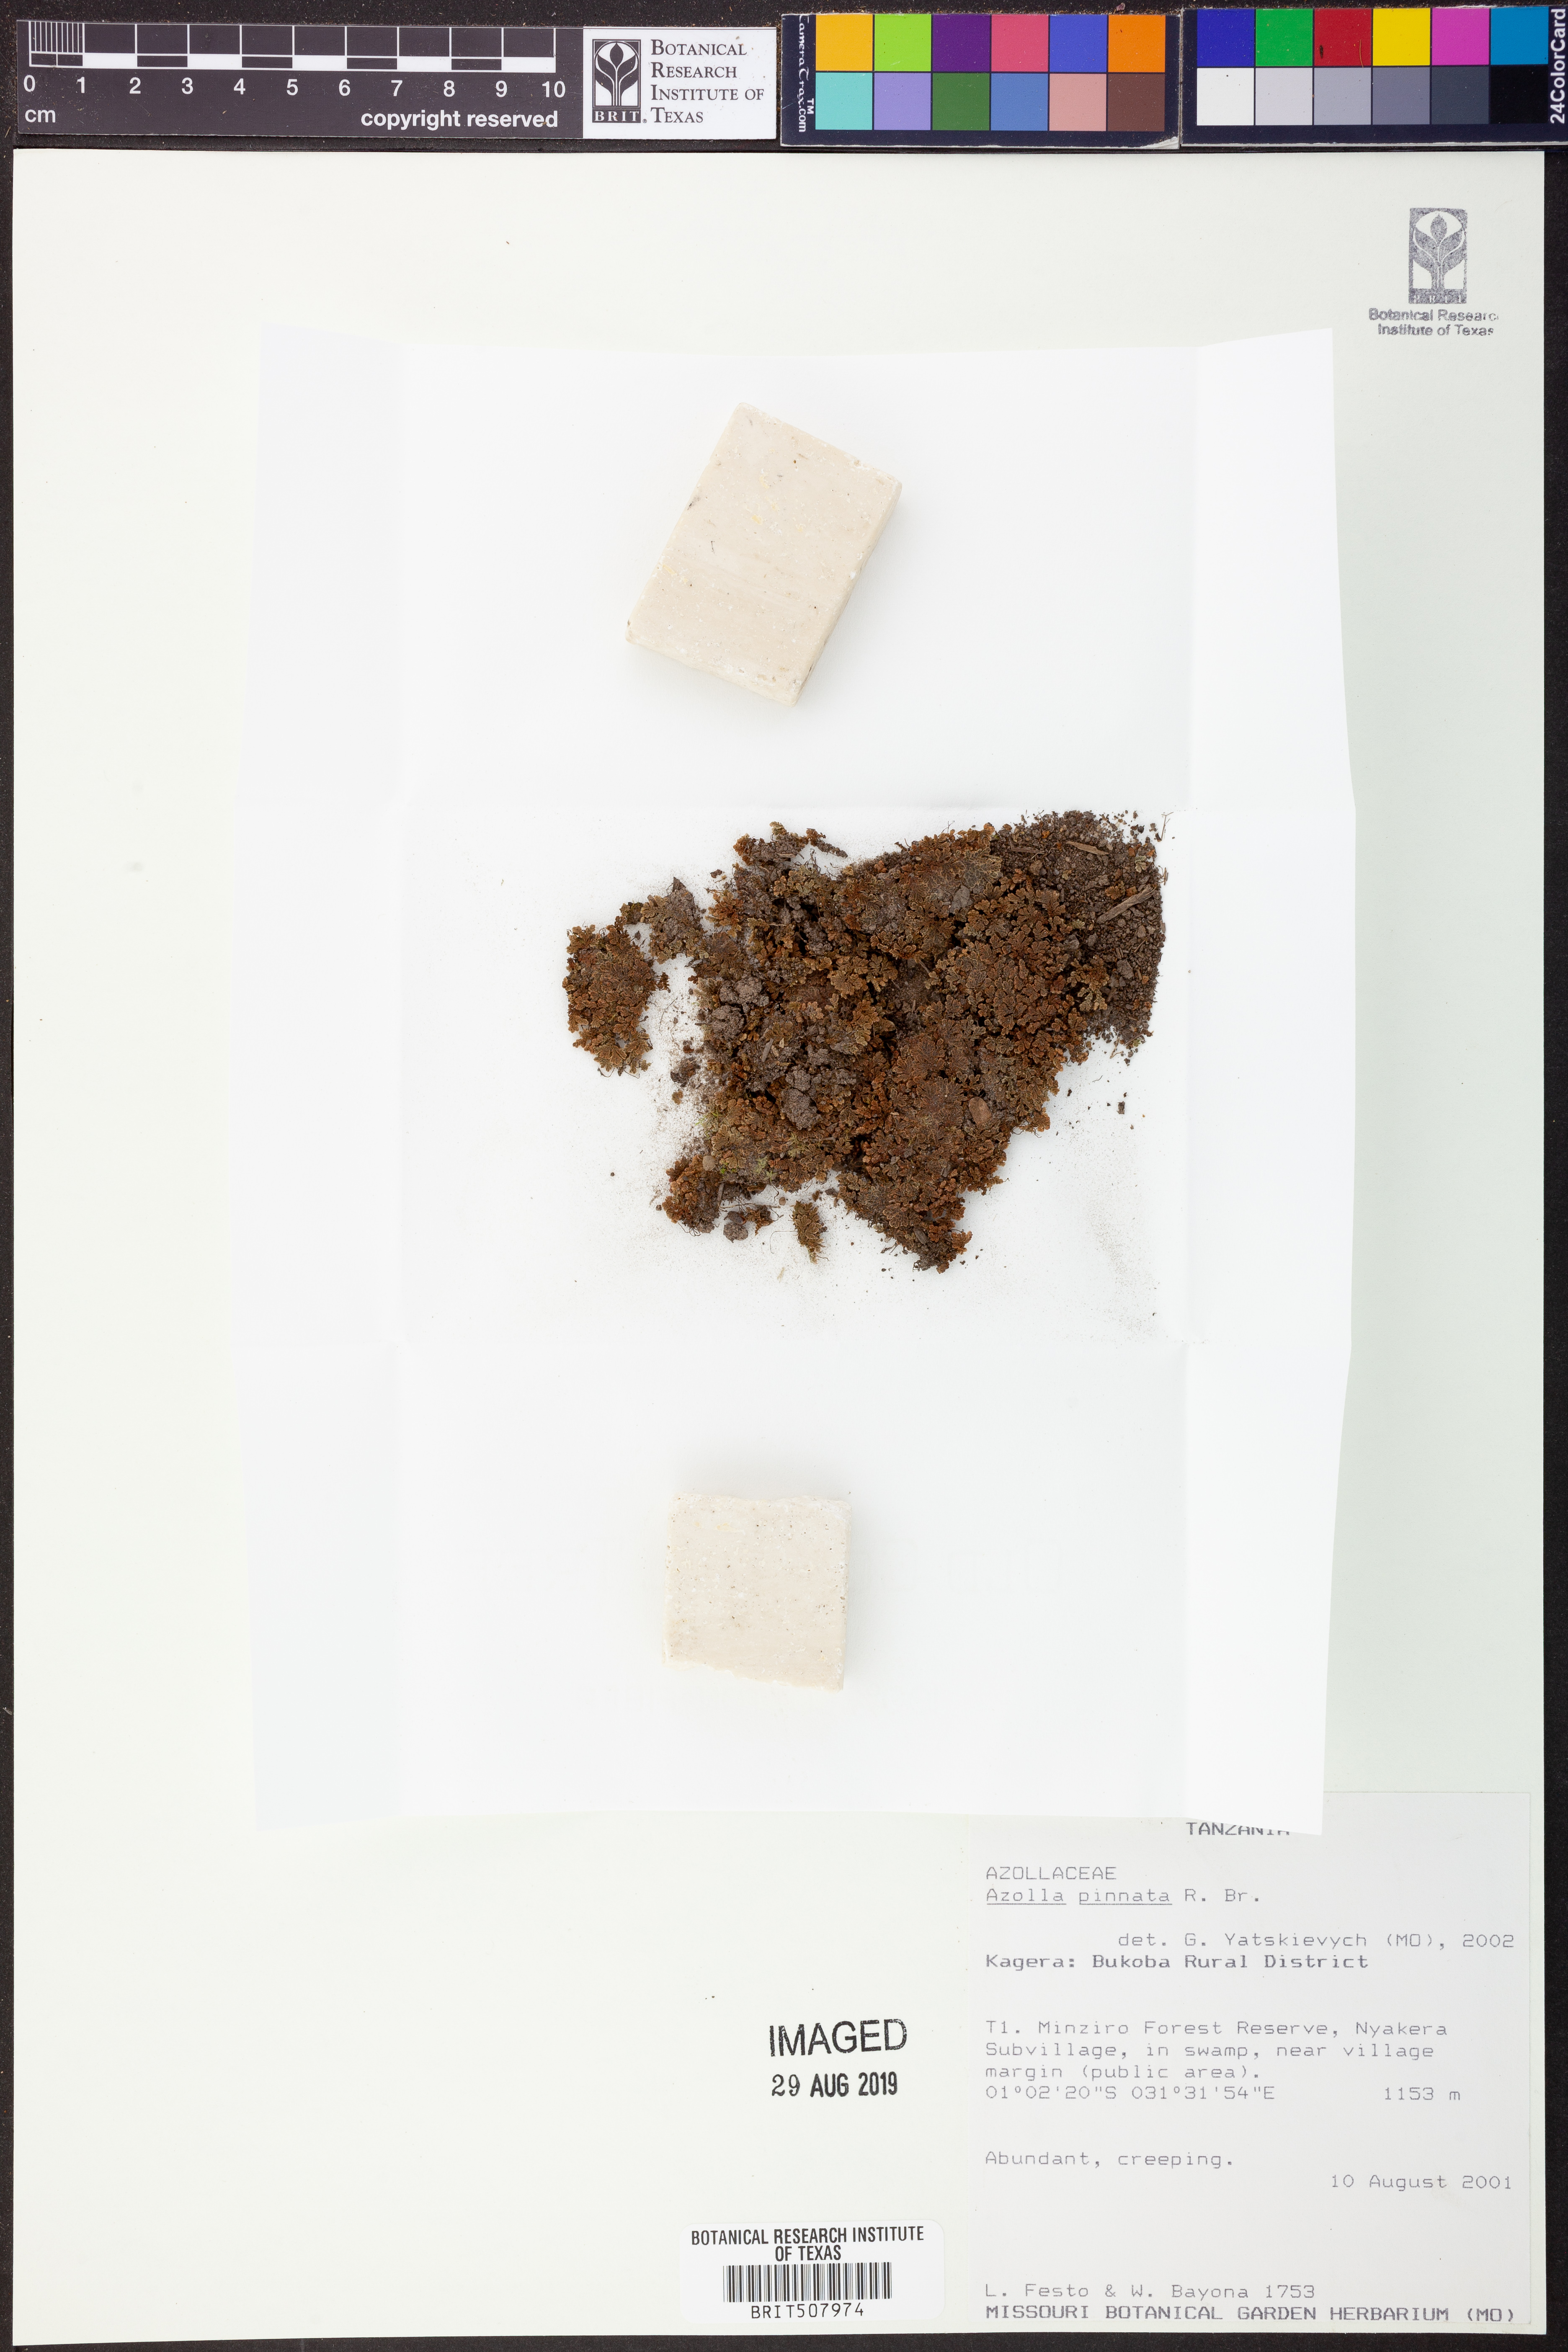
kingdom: Plantae
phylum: Tracheophyta
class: Polypodiopsida
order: Salviniales
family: Salviniaceae
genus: Azolla
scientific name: Azolla pinnata
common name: Ferny azolla
